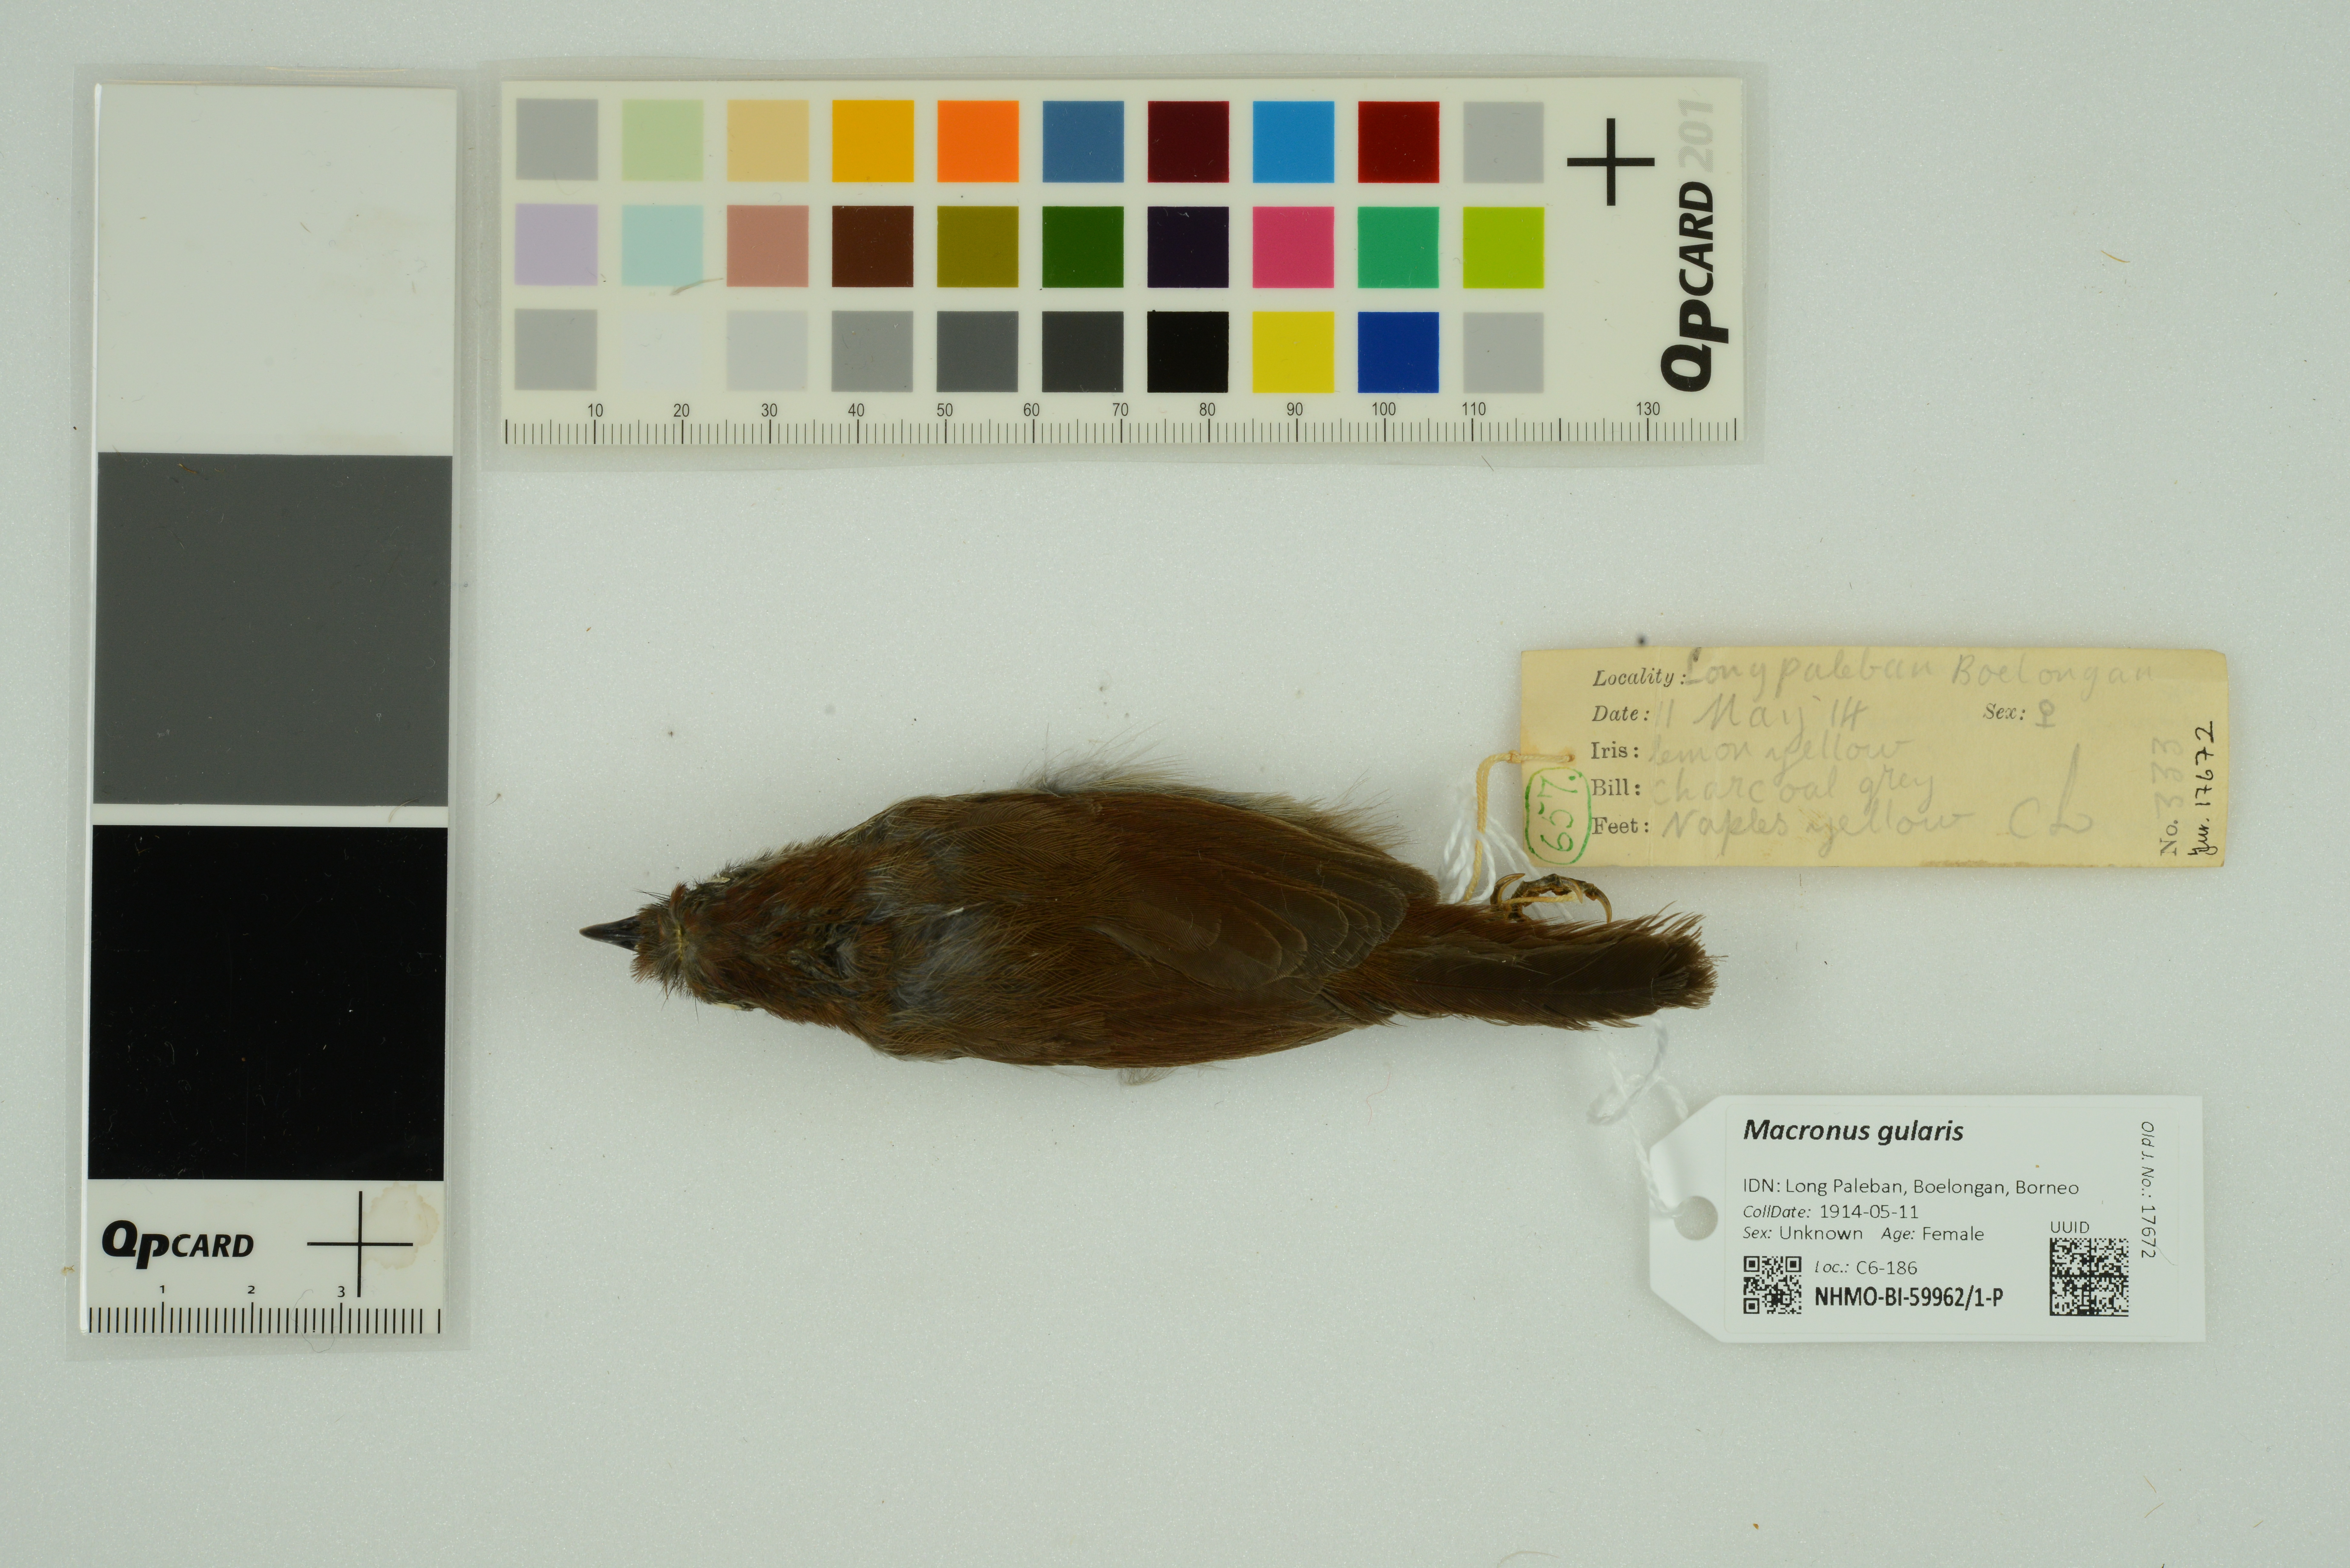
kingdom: Animalia
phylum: Chordata
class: Aves
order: Passeriformes
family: Timaliidae
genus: Macronus
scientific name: Macronus gularis
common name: Striped tit-babbler
